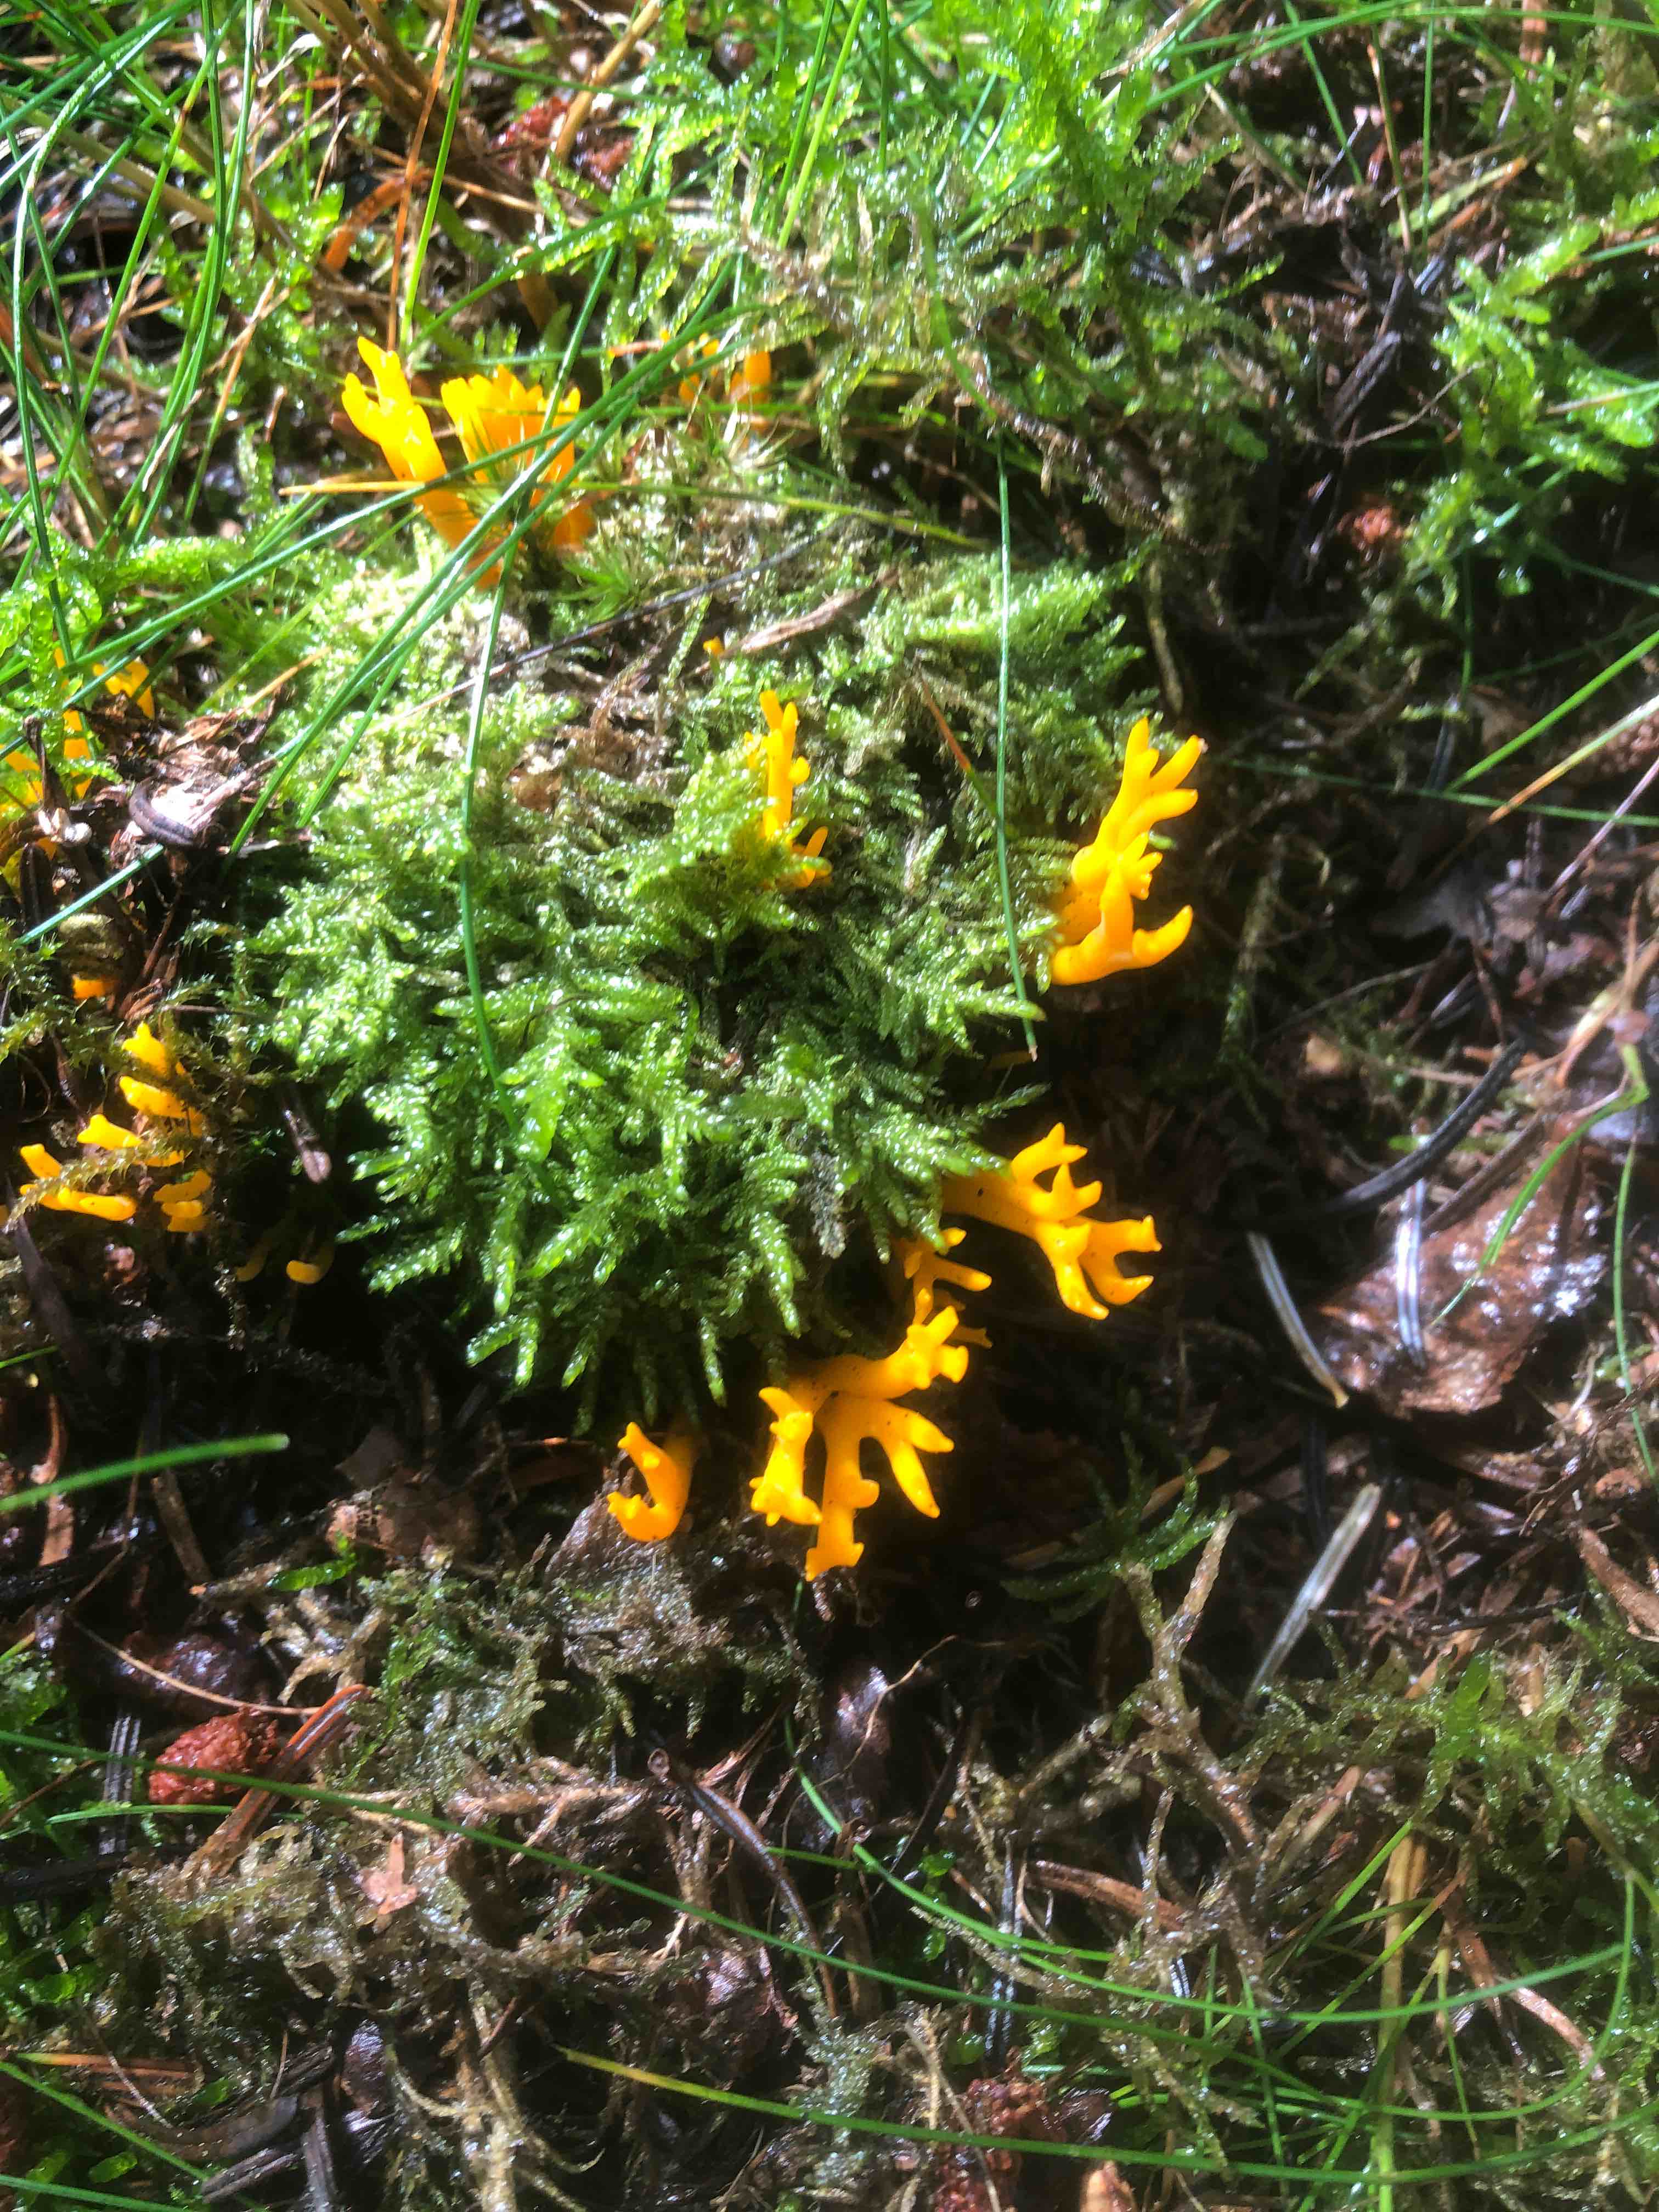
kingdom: Fungi
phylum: Basidiomycota
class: Dacrymycetes
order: Dacrymycetales
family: Dacrymycetaceae
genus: Calocera
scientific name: Calocera viscosa
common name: almindelig guldgaffel
